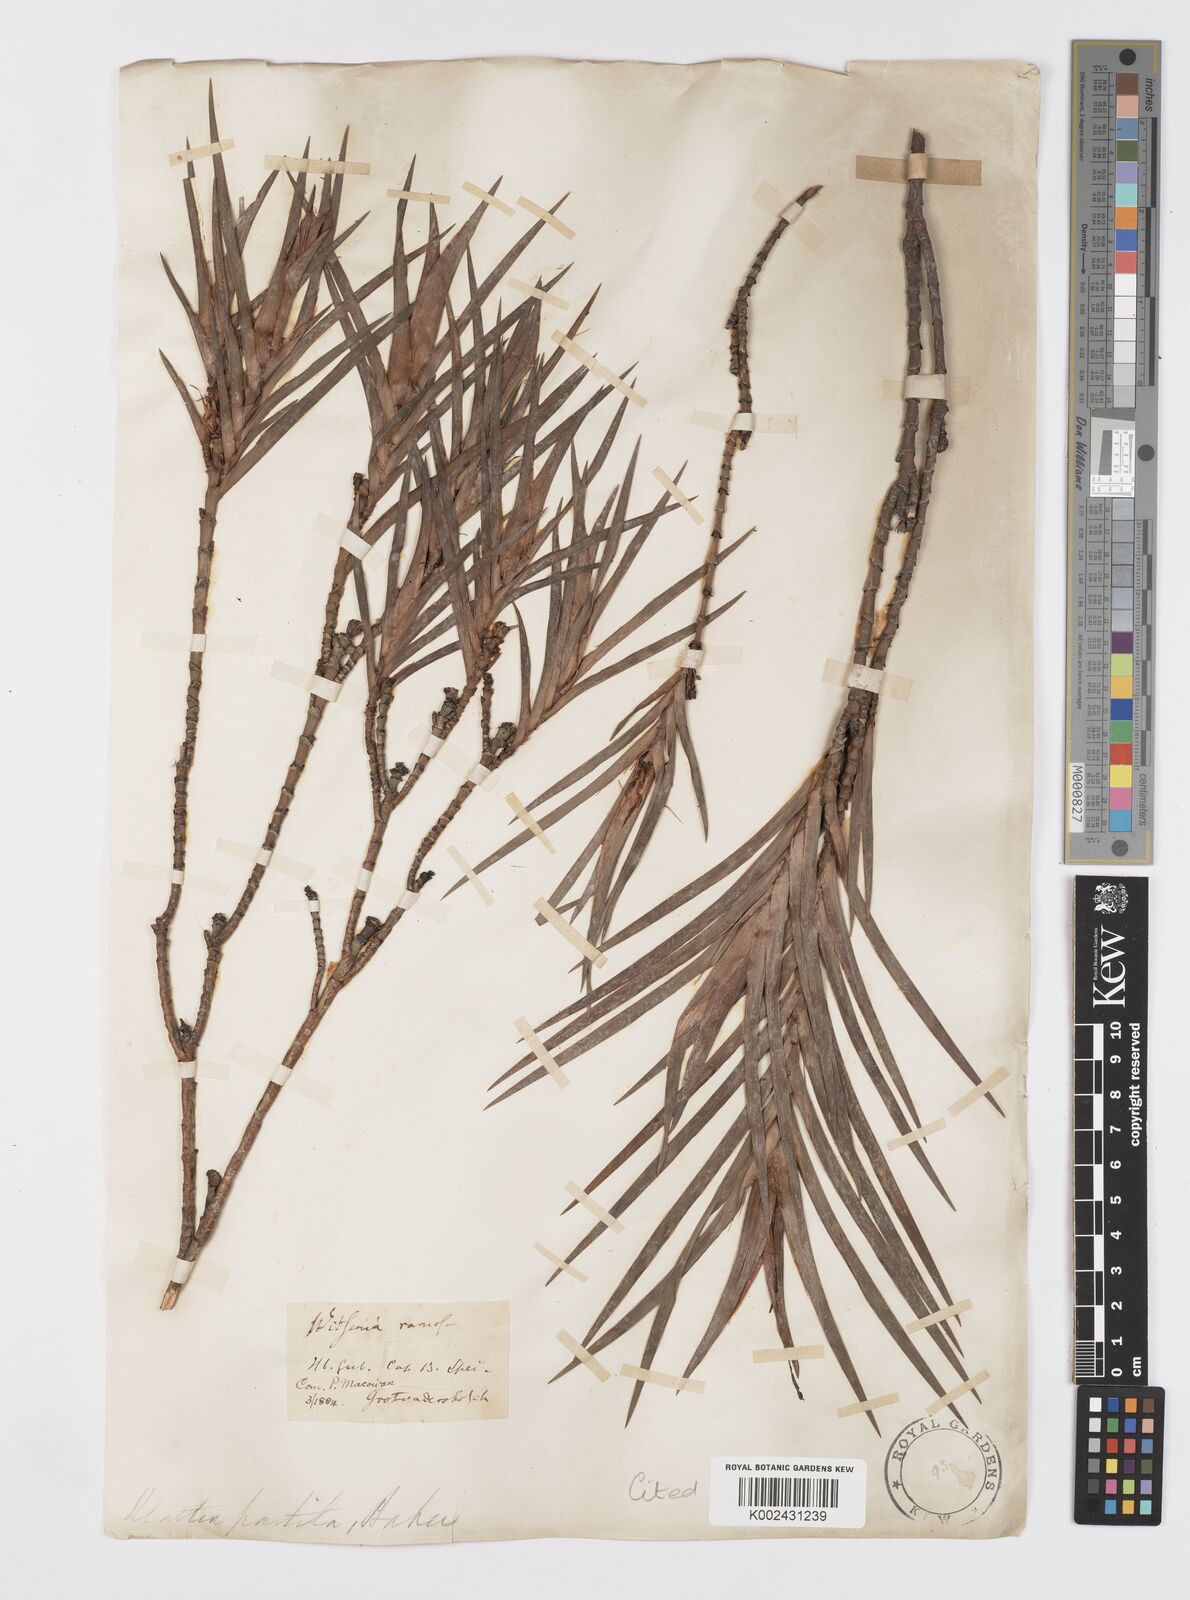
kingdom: Plantae
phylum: Tracheophyta
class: Liliopsida
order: Asparagales
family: Iridaceae
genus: Klattia
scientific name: Klattia partita
